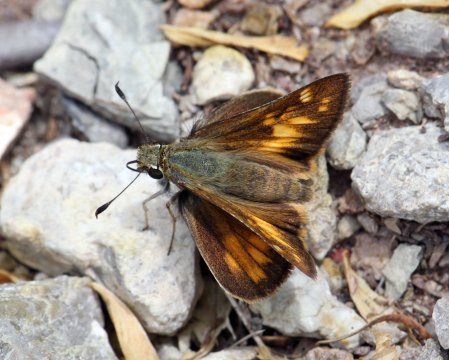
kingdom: Animalia
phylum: Arthropoda
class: Insecta
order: Lepidoptera
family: Hesperiidae
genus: Lon
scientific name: Lon taxiles
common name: Taxiles Skipper
